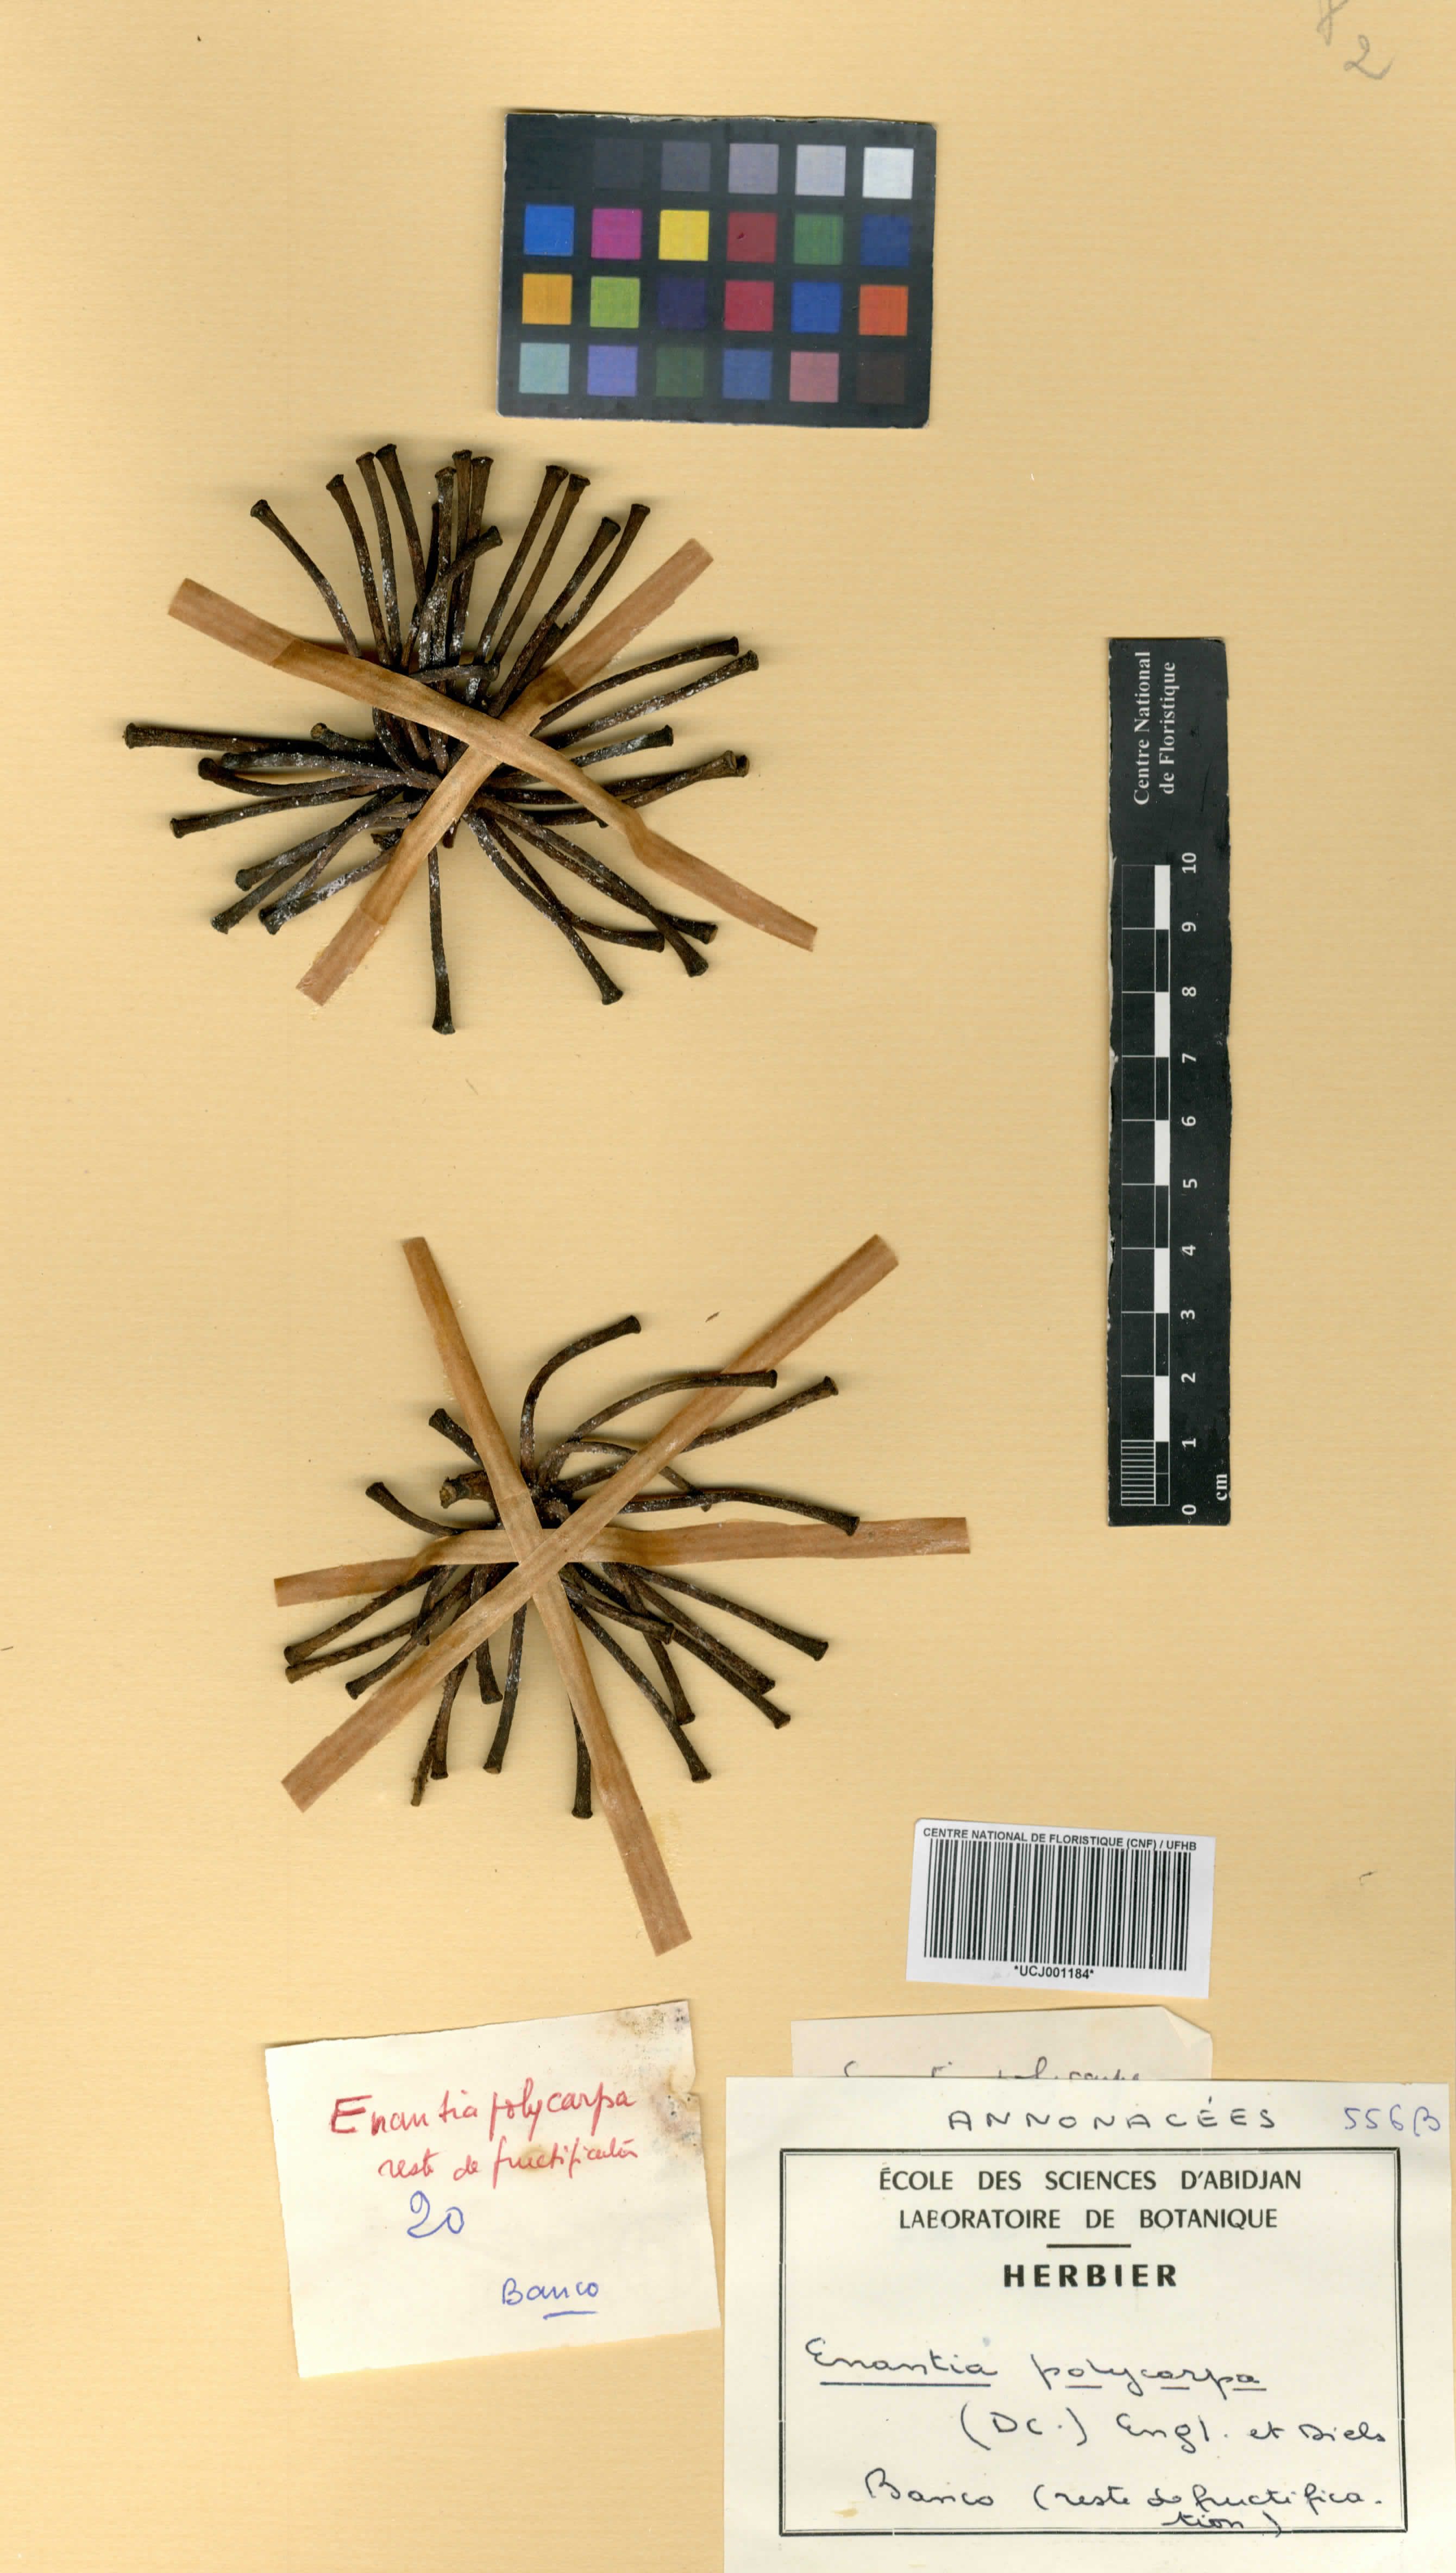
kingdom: Plantae
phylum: Tracheophyta
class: Magnoliopsida
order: Magnoliales
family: Annonaceae
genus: Annickia
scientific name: Annickia polycarpa
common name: African yellowwood
